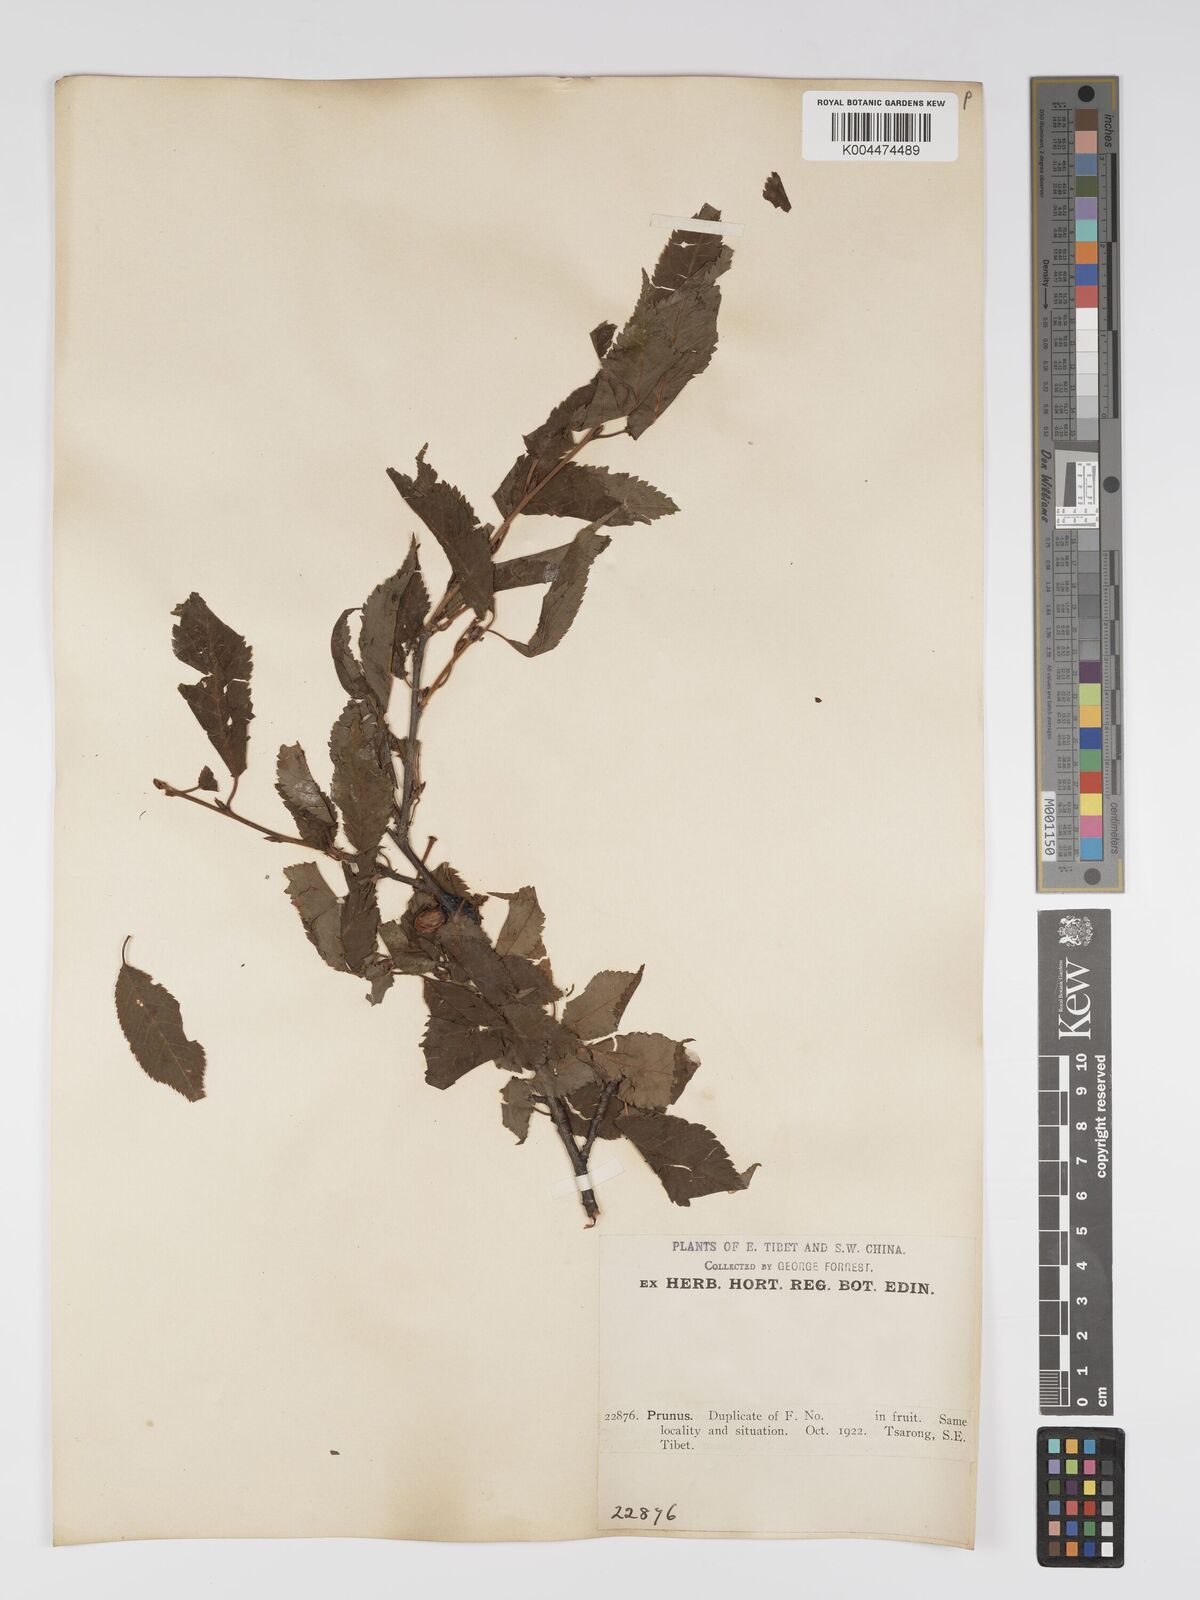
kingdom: Plantae
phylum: Tracheophyta
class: Magnoliopsida
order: Rosales
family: Rosaceae
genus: Prunus
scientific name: Prunus
